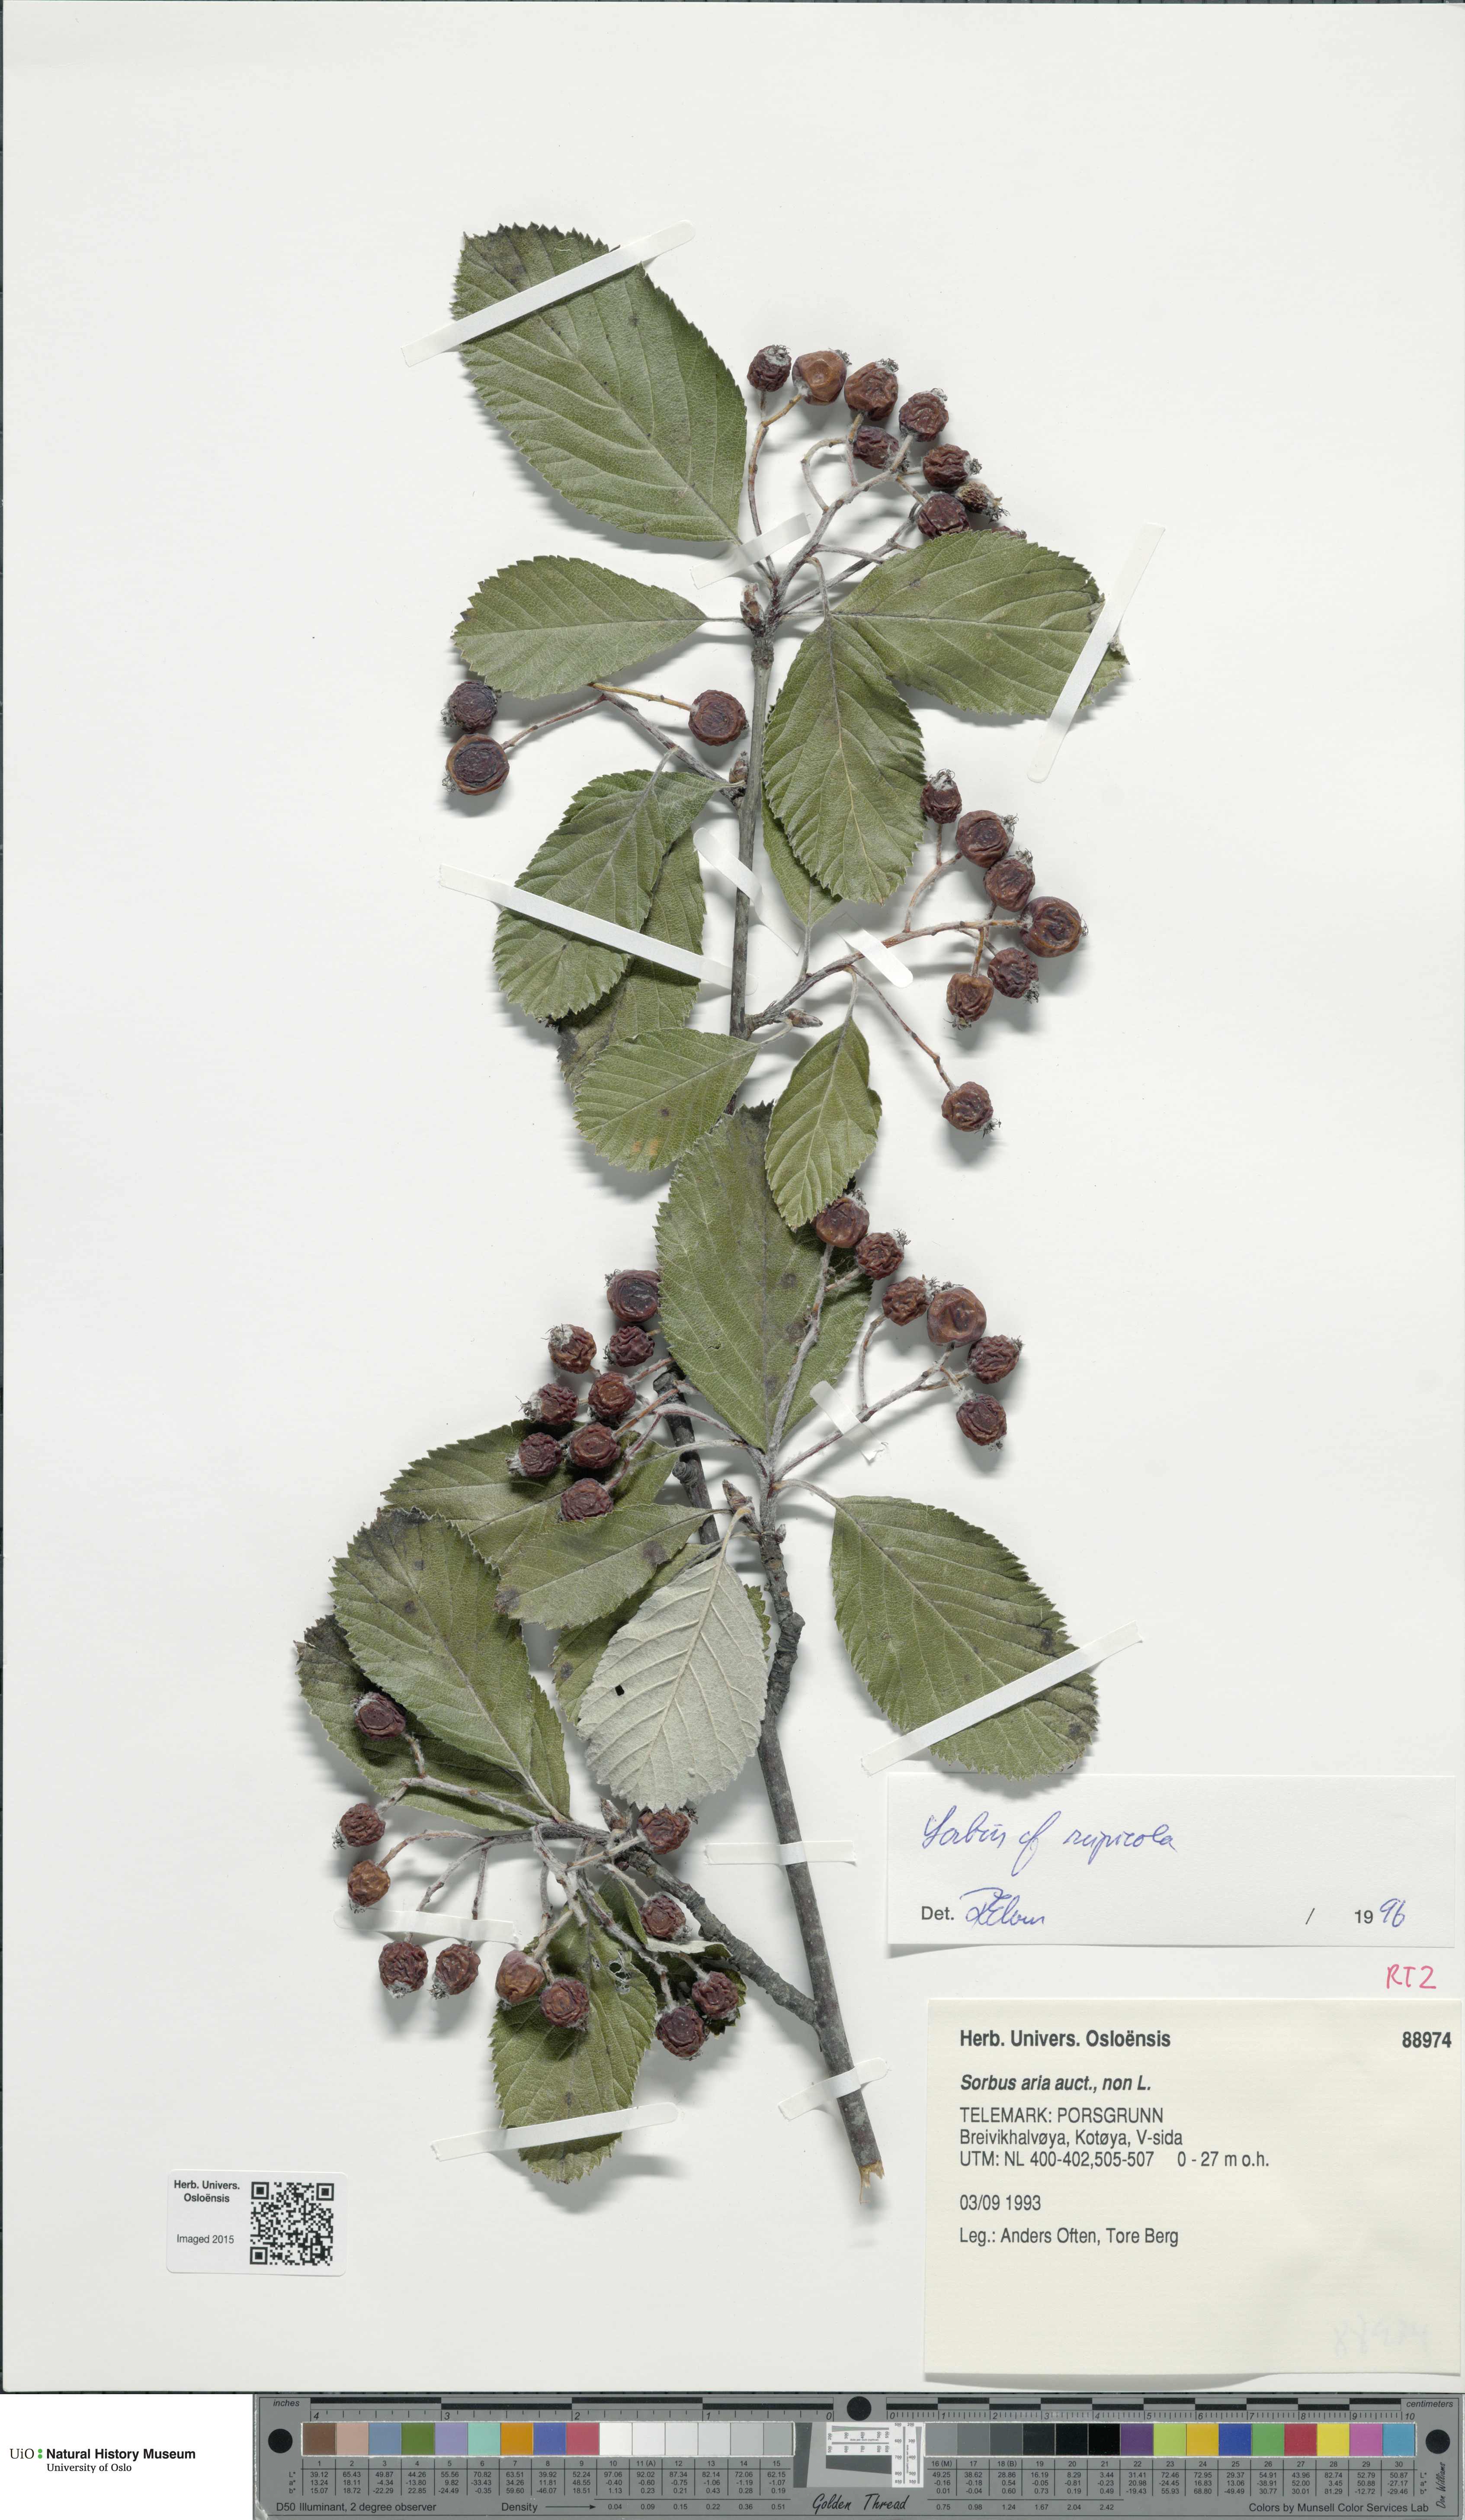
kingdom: Plantae
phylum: Tracheophyta
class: Magnoliopsida
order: Rosales
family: Rosaceae
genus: Aria
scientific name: Aria rupicola
